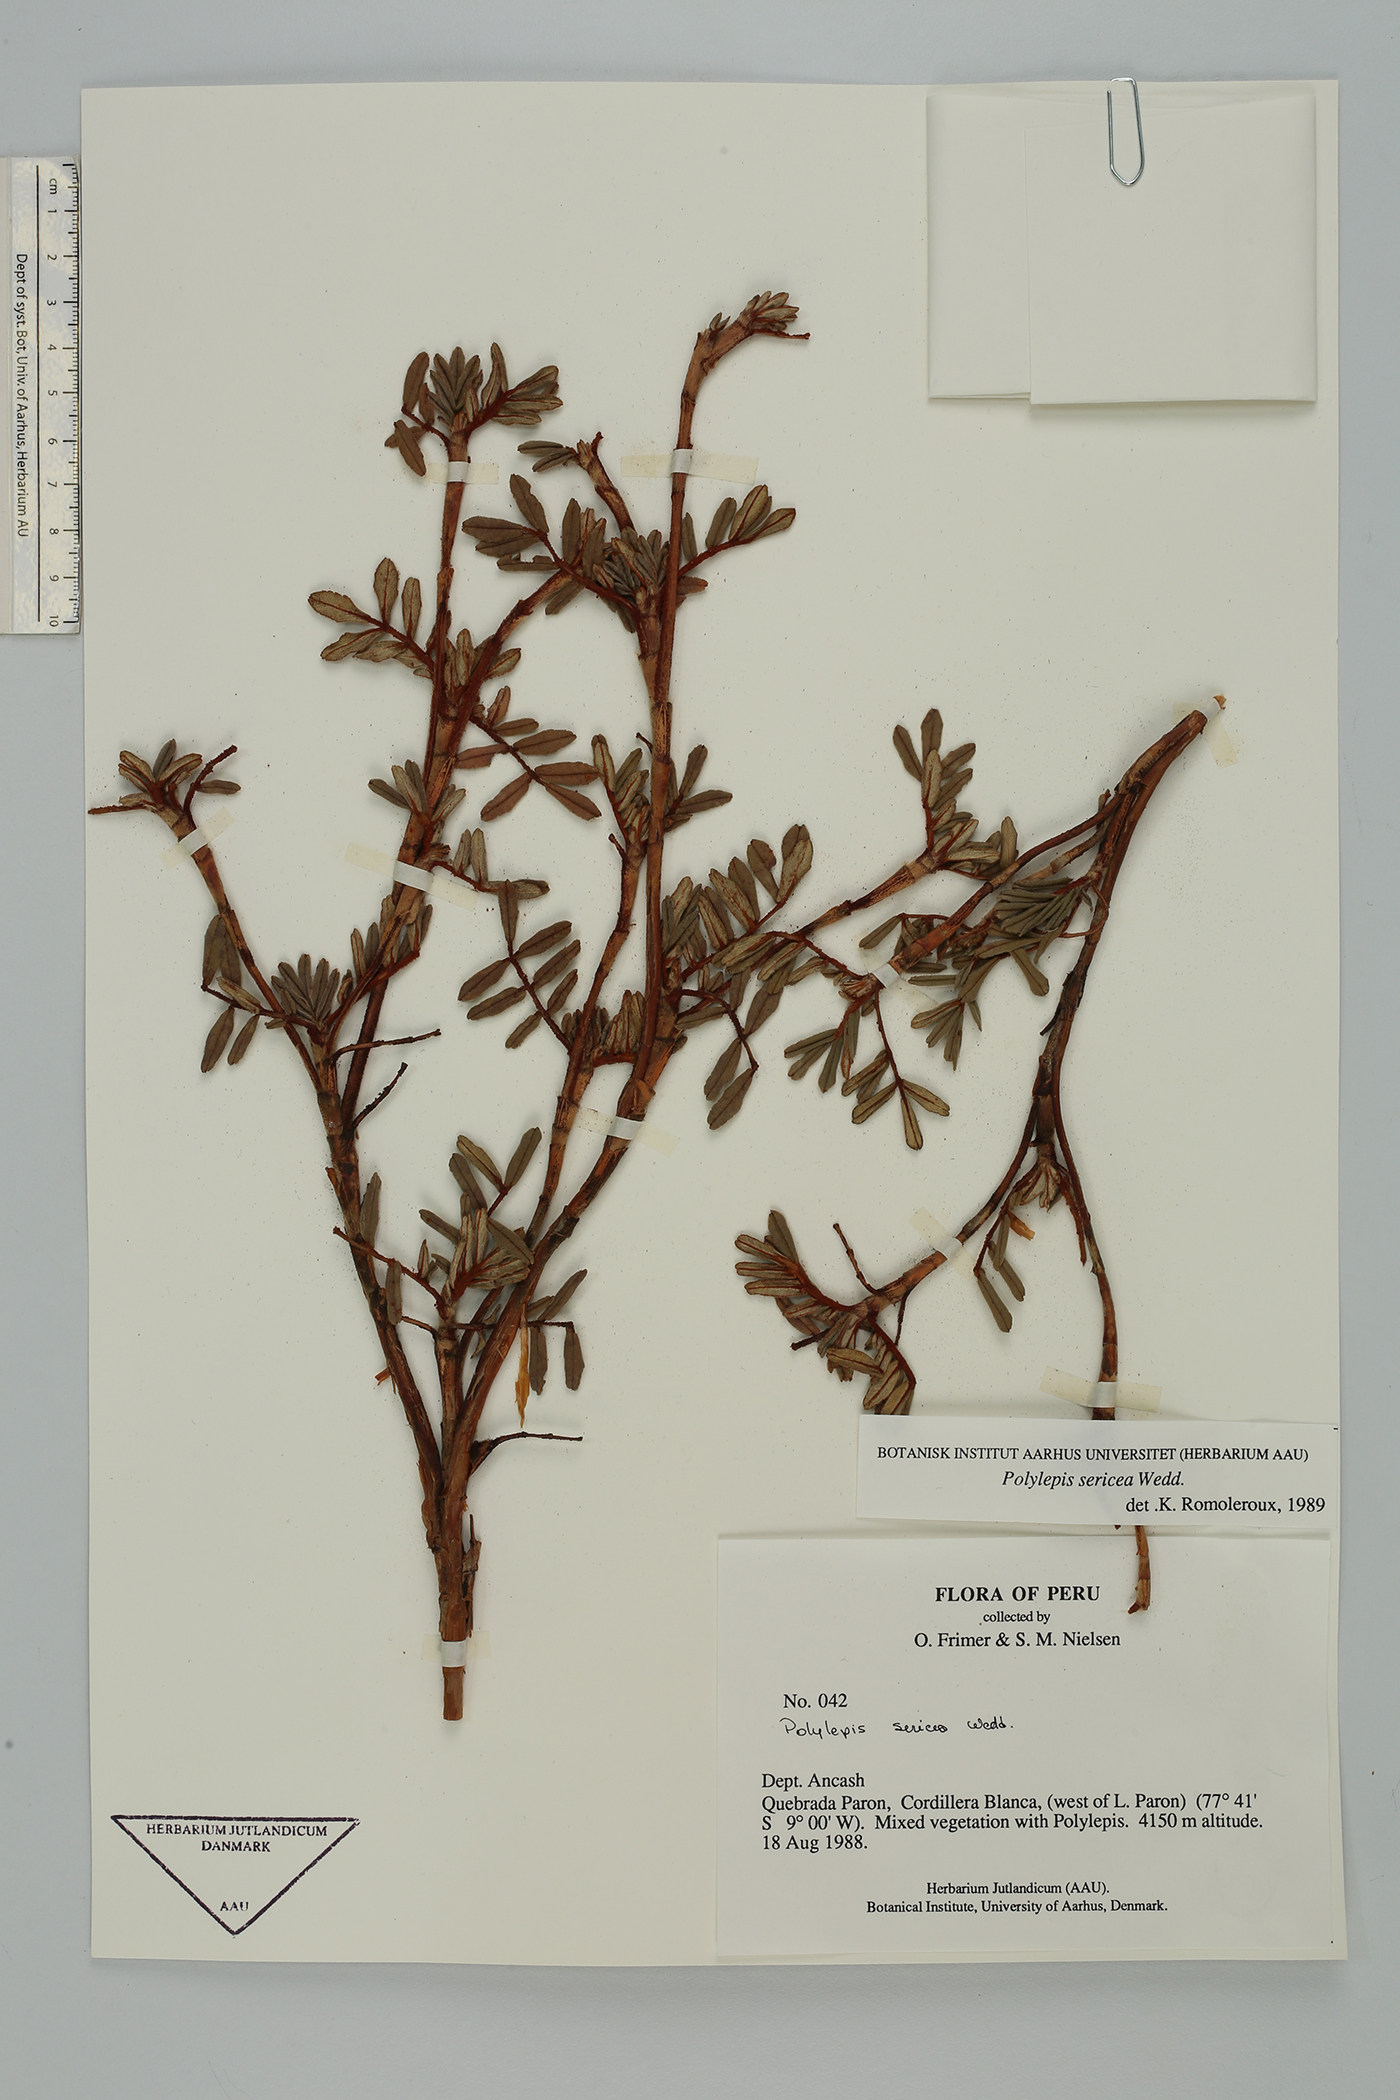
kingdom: Plantae
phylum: Tracheophyta
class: Magnoliopsida
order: Rosales
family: Rosaceae
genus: Polylepis
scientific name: Polylepis sericea
